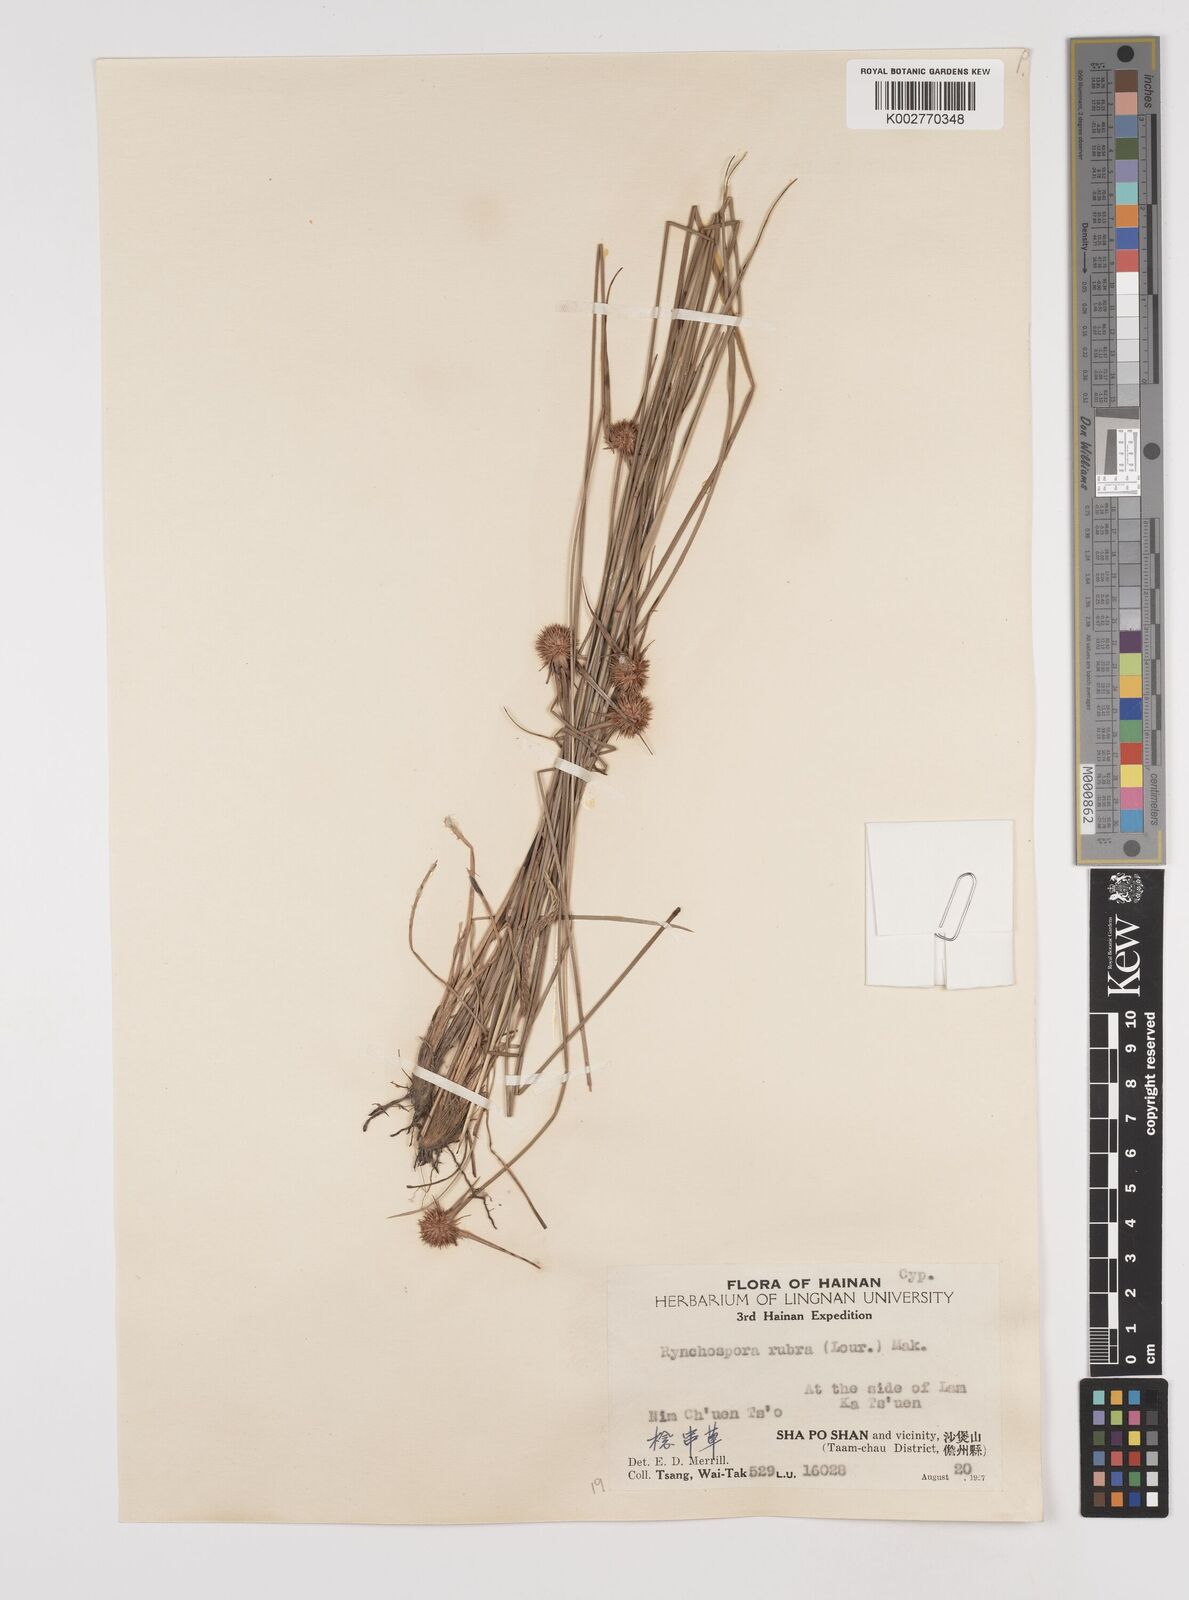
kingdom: Plantae
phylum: Tracheophyta
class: Liliopsida
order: Poales
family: Cyperaceae
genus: Rhynchospora
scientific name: Rhynchospora rubra
